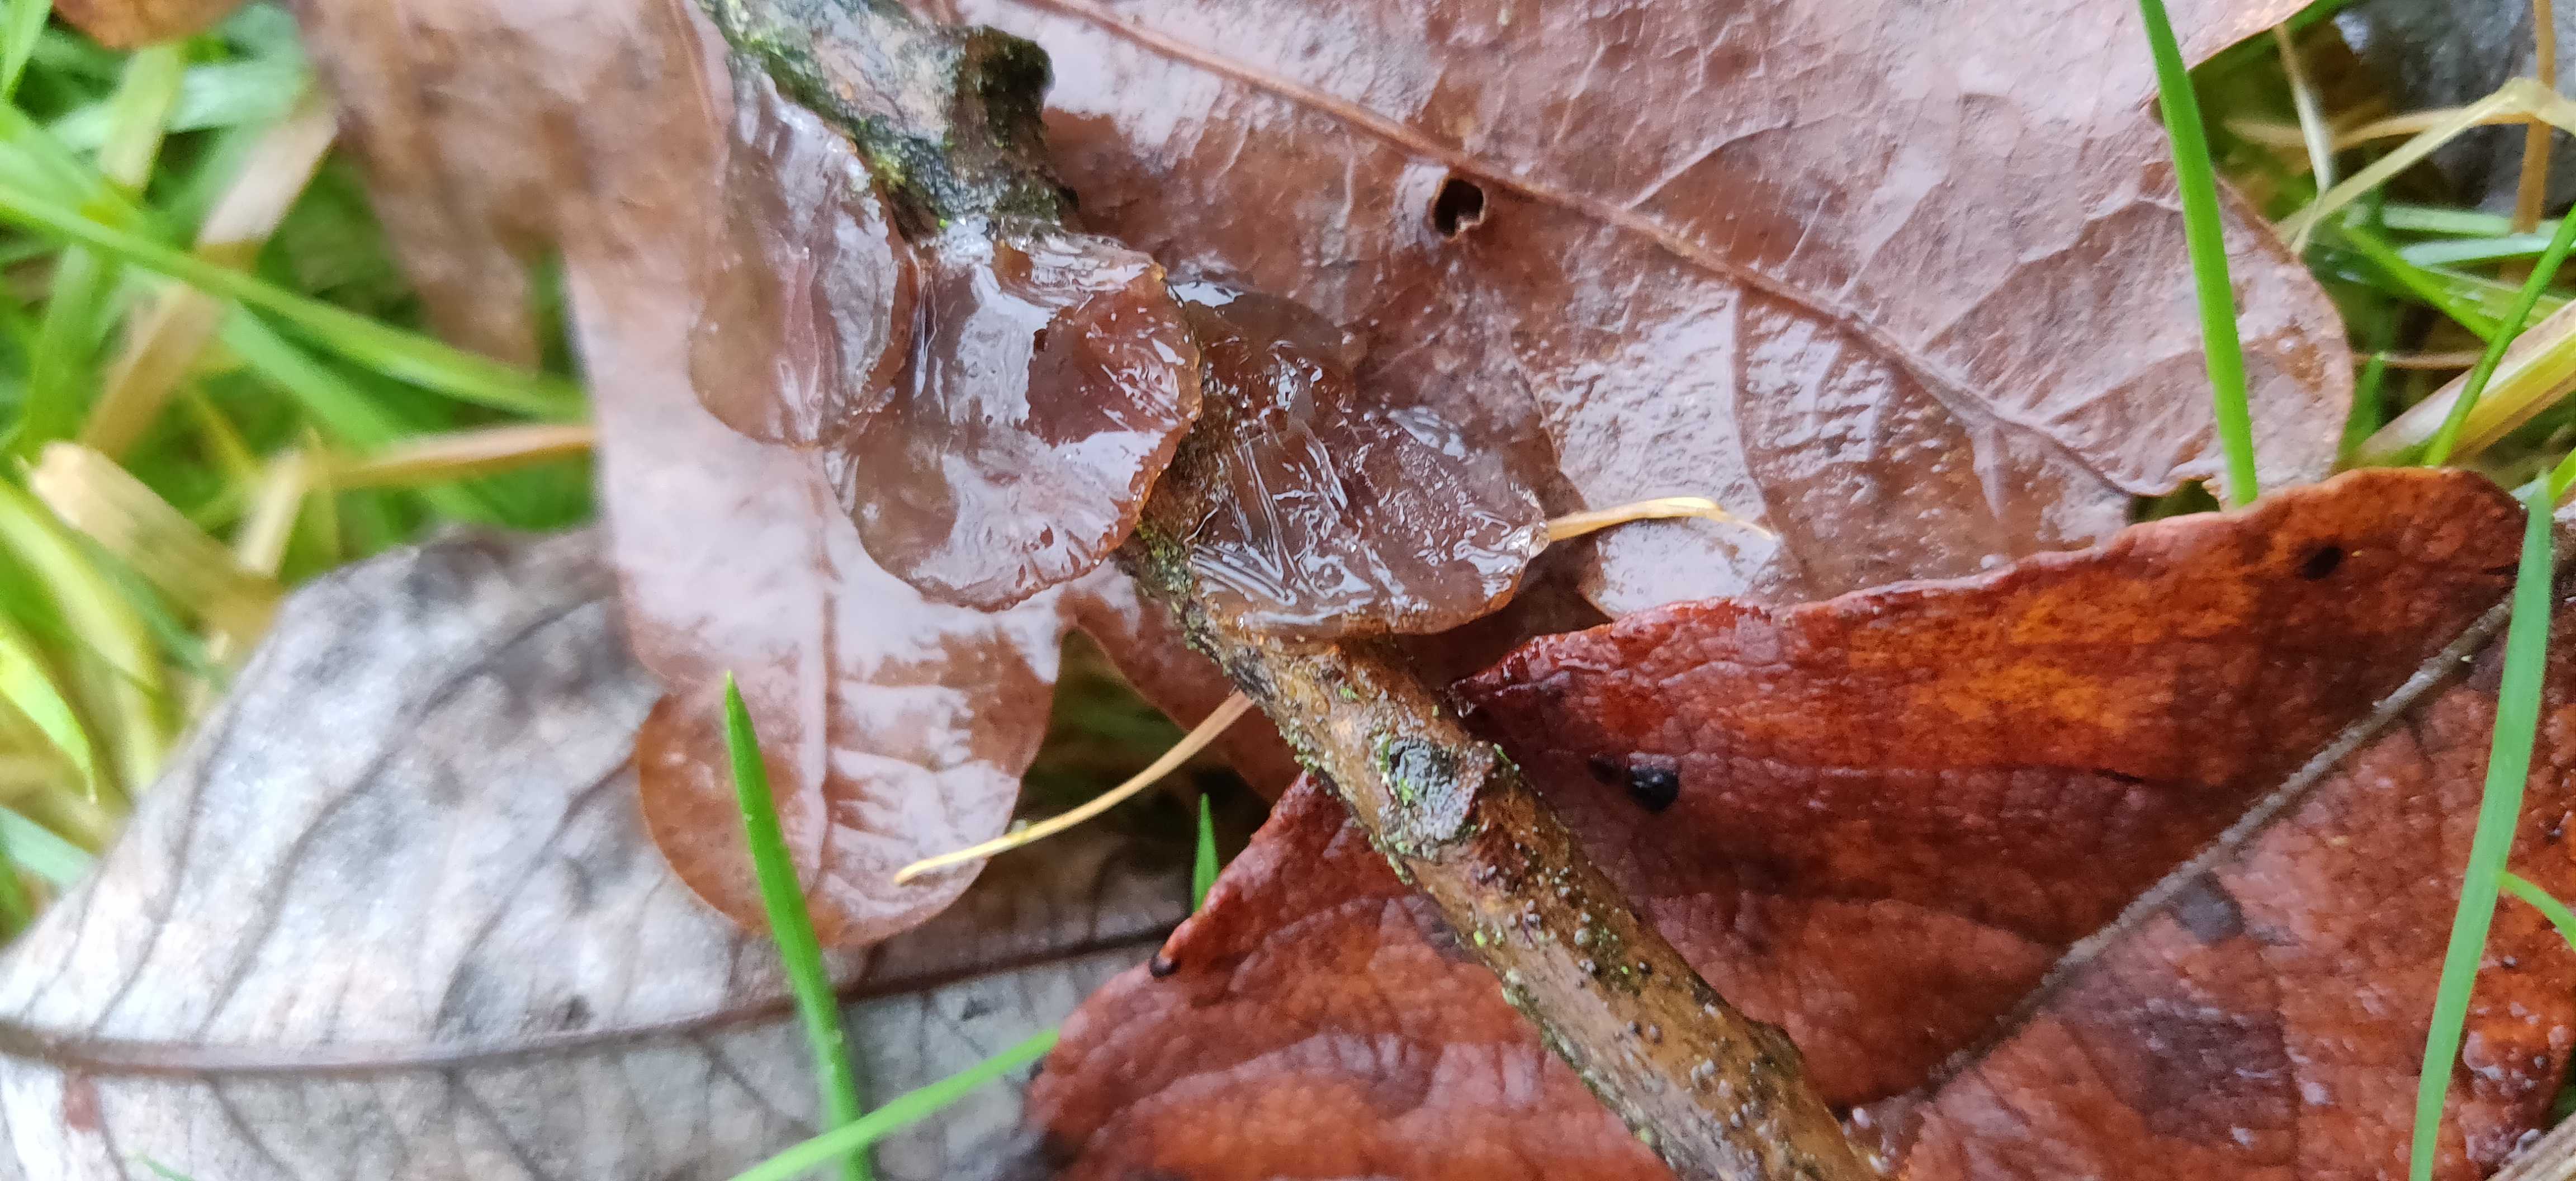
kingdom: Fungi
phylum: Basidiomycota
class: Agaricomycetes
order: Auriculariales
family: Auriculariaceae
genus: Exidia
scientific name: Exidia recisa
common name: pile-bævretop
